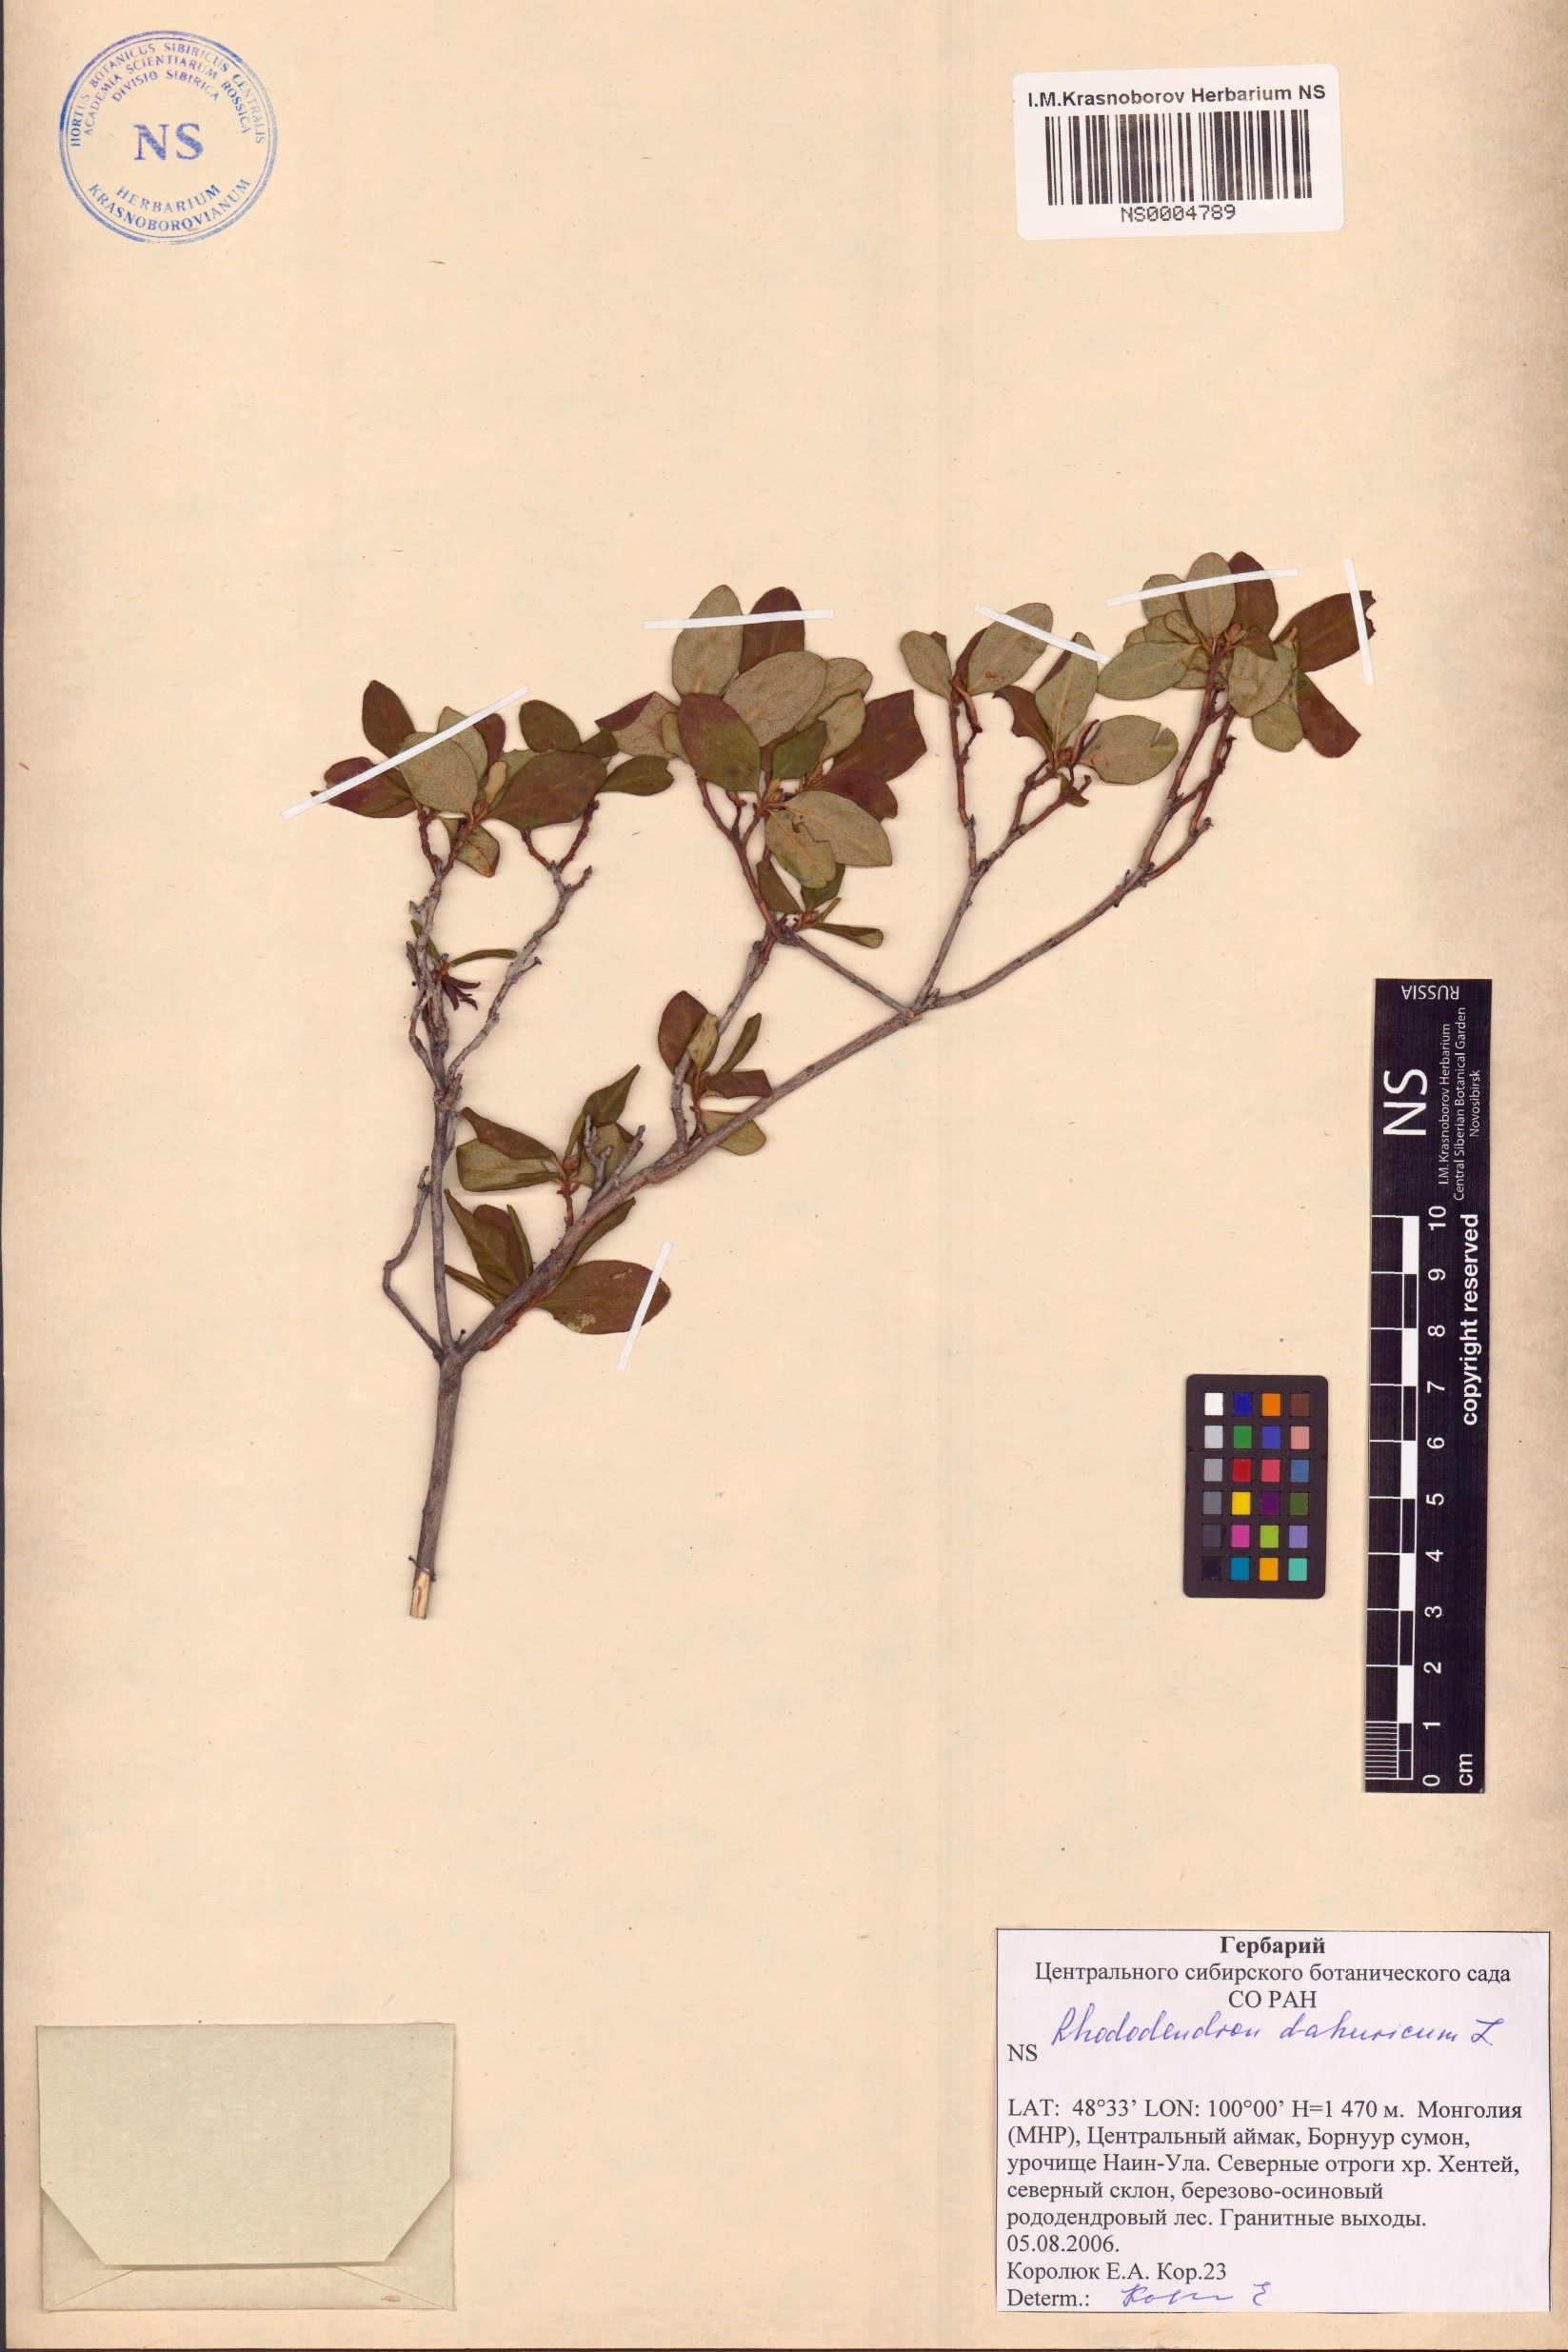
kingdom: Plantae
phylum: Tracheophyta
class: Magnoliopsida
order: Ericales
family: Ericaceae
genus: Rhododendron
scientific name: Rhododendron dauricum
